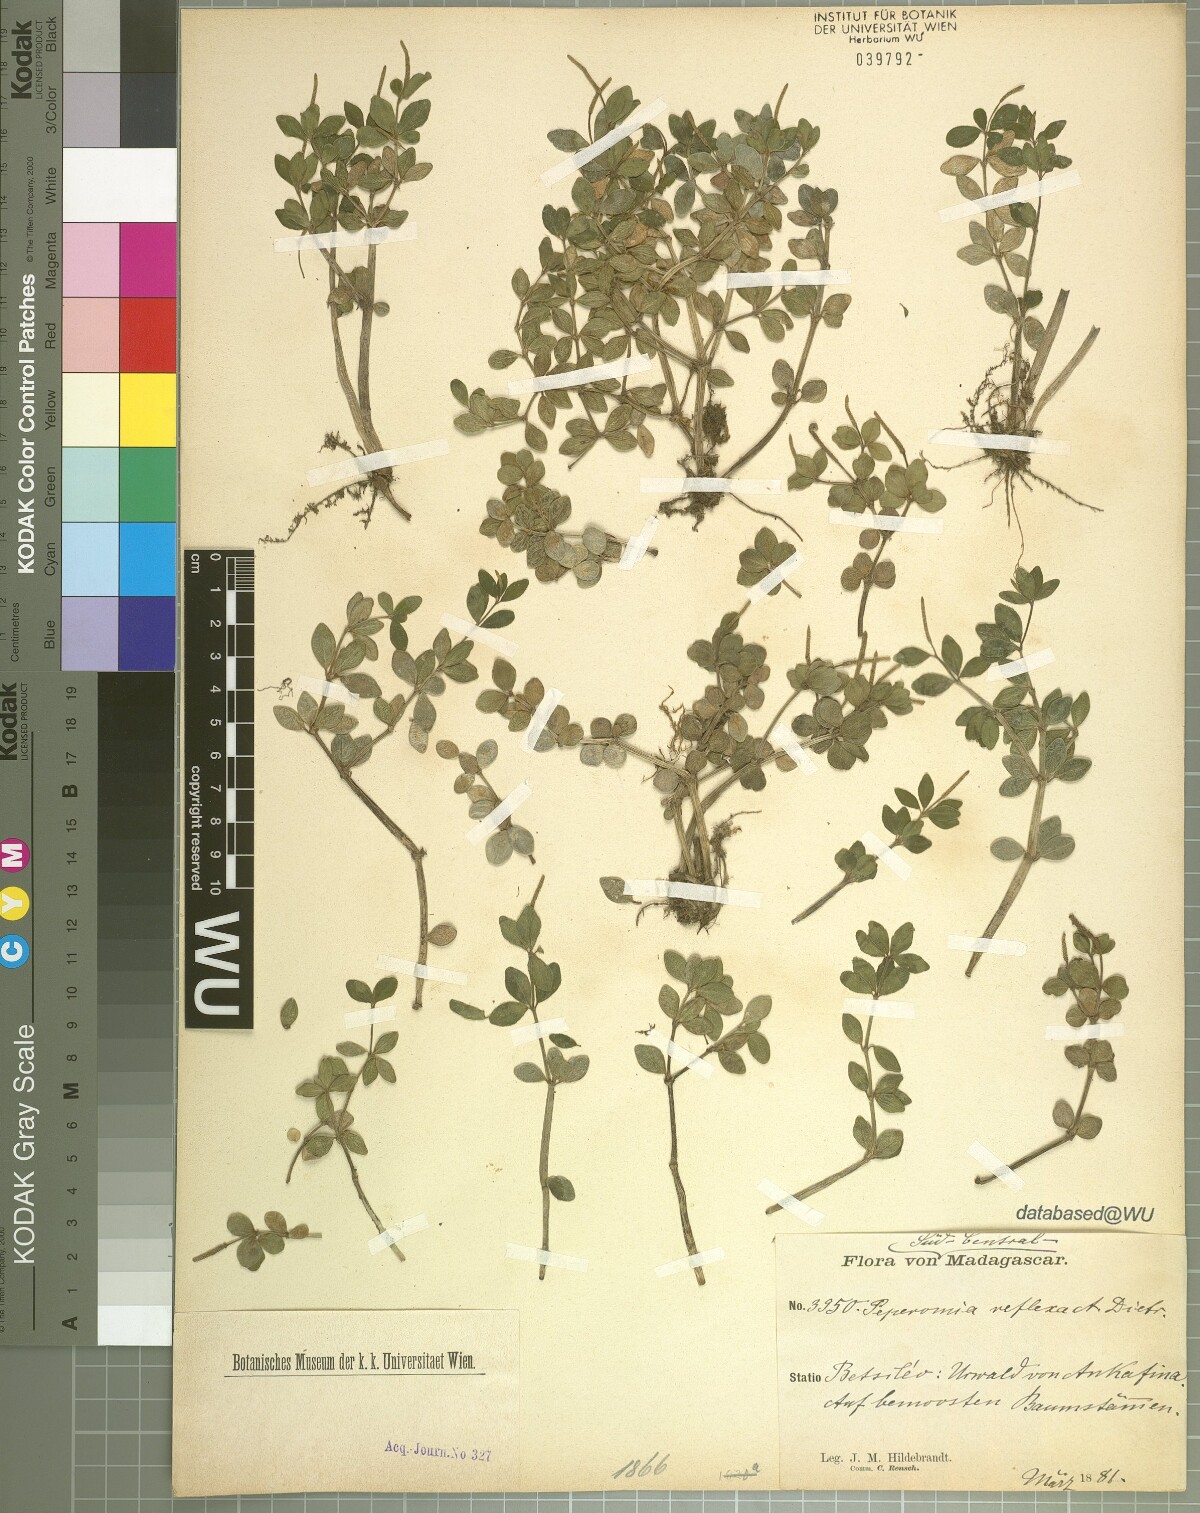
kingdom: Plantae
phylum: Tracheophyta
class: Magnoliopsida
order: Piperales
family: Piperaceae
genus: Peperomia
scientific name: Peperomia tetraphylla
